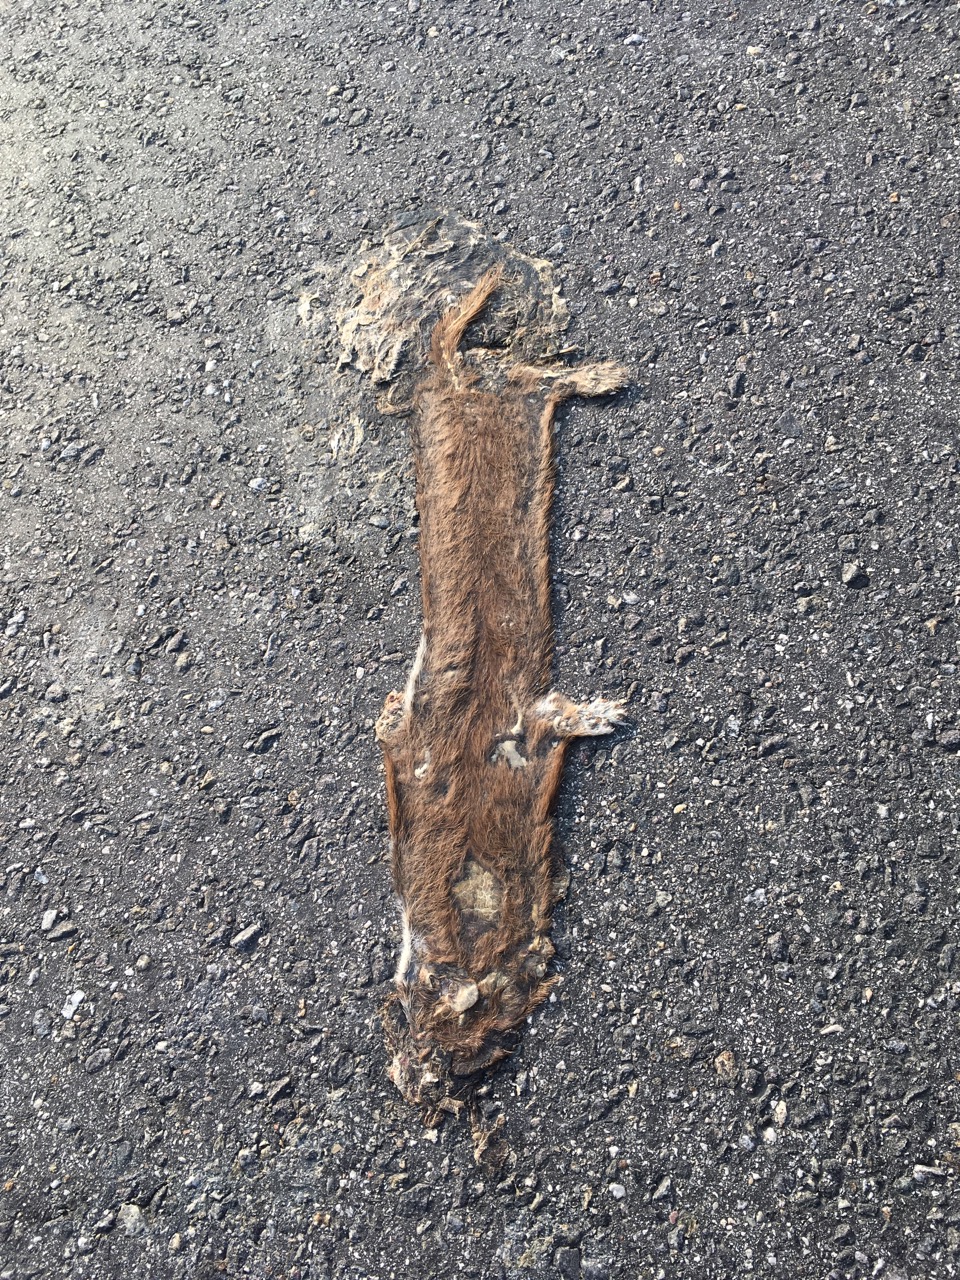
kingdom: Animalia
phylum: Chordata
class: Mammalia
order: Carnivora
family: Mustelidae
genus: Mustela
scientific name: Mustela nivalis
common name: Least weasel
